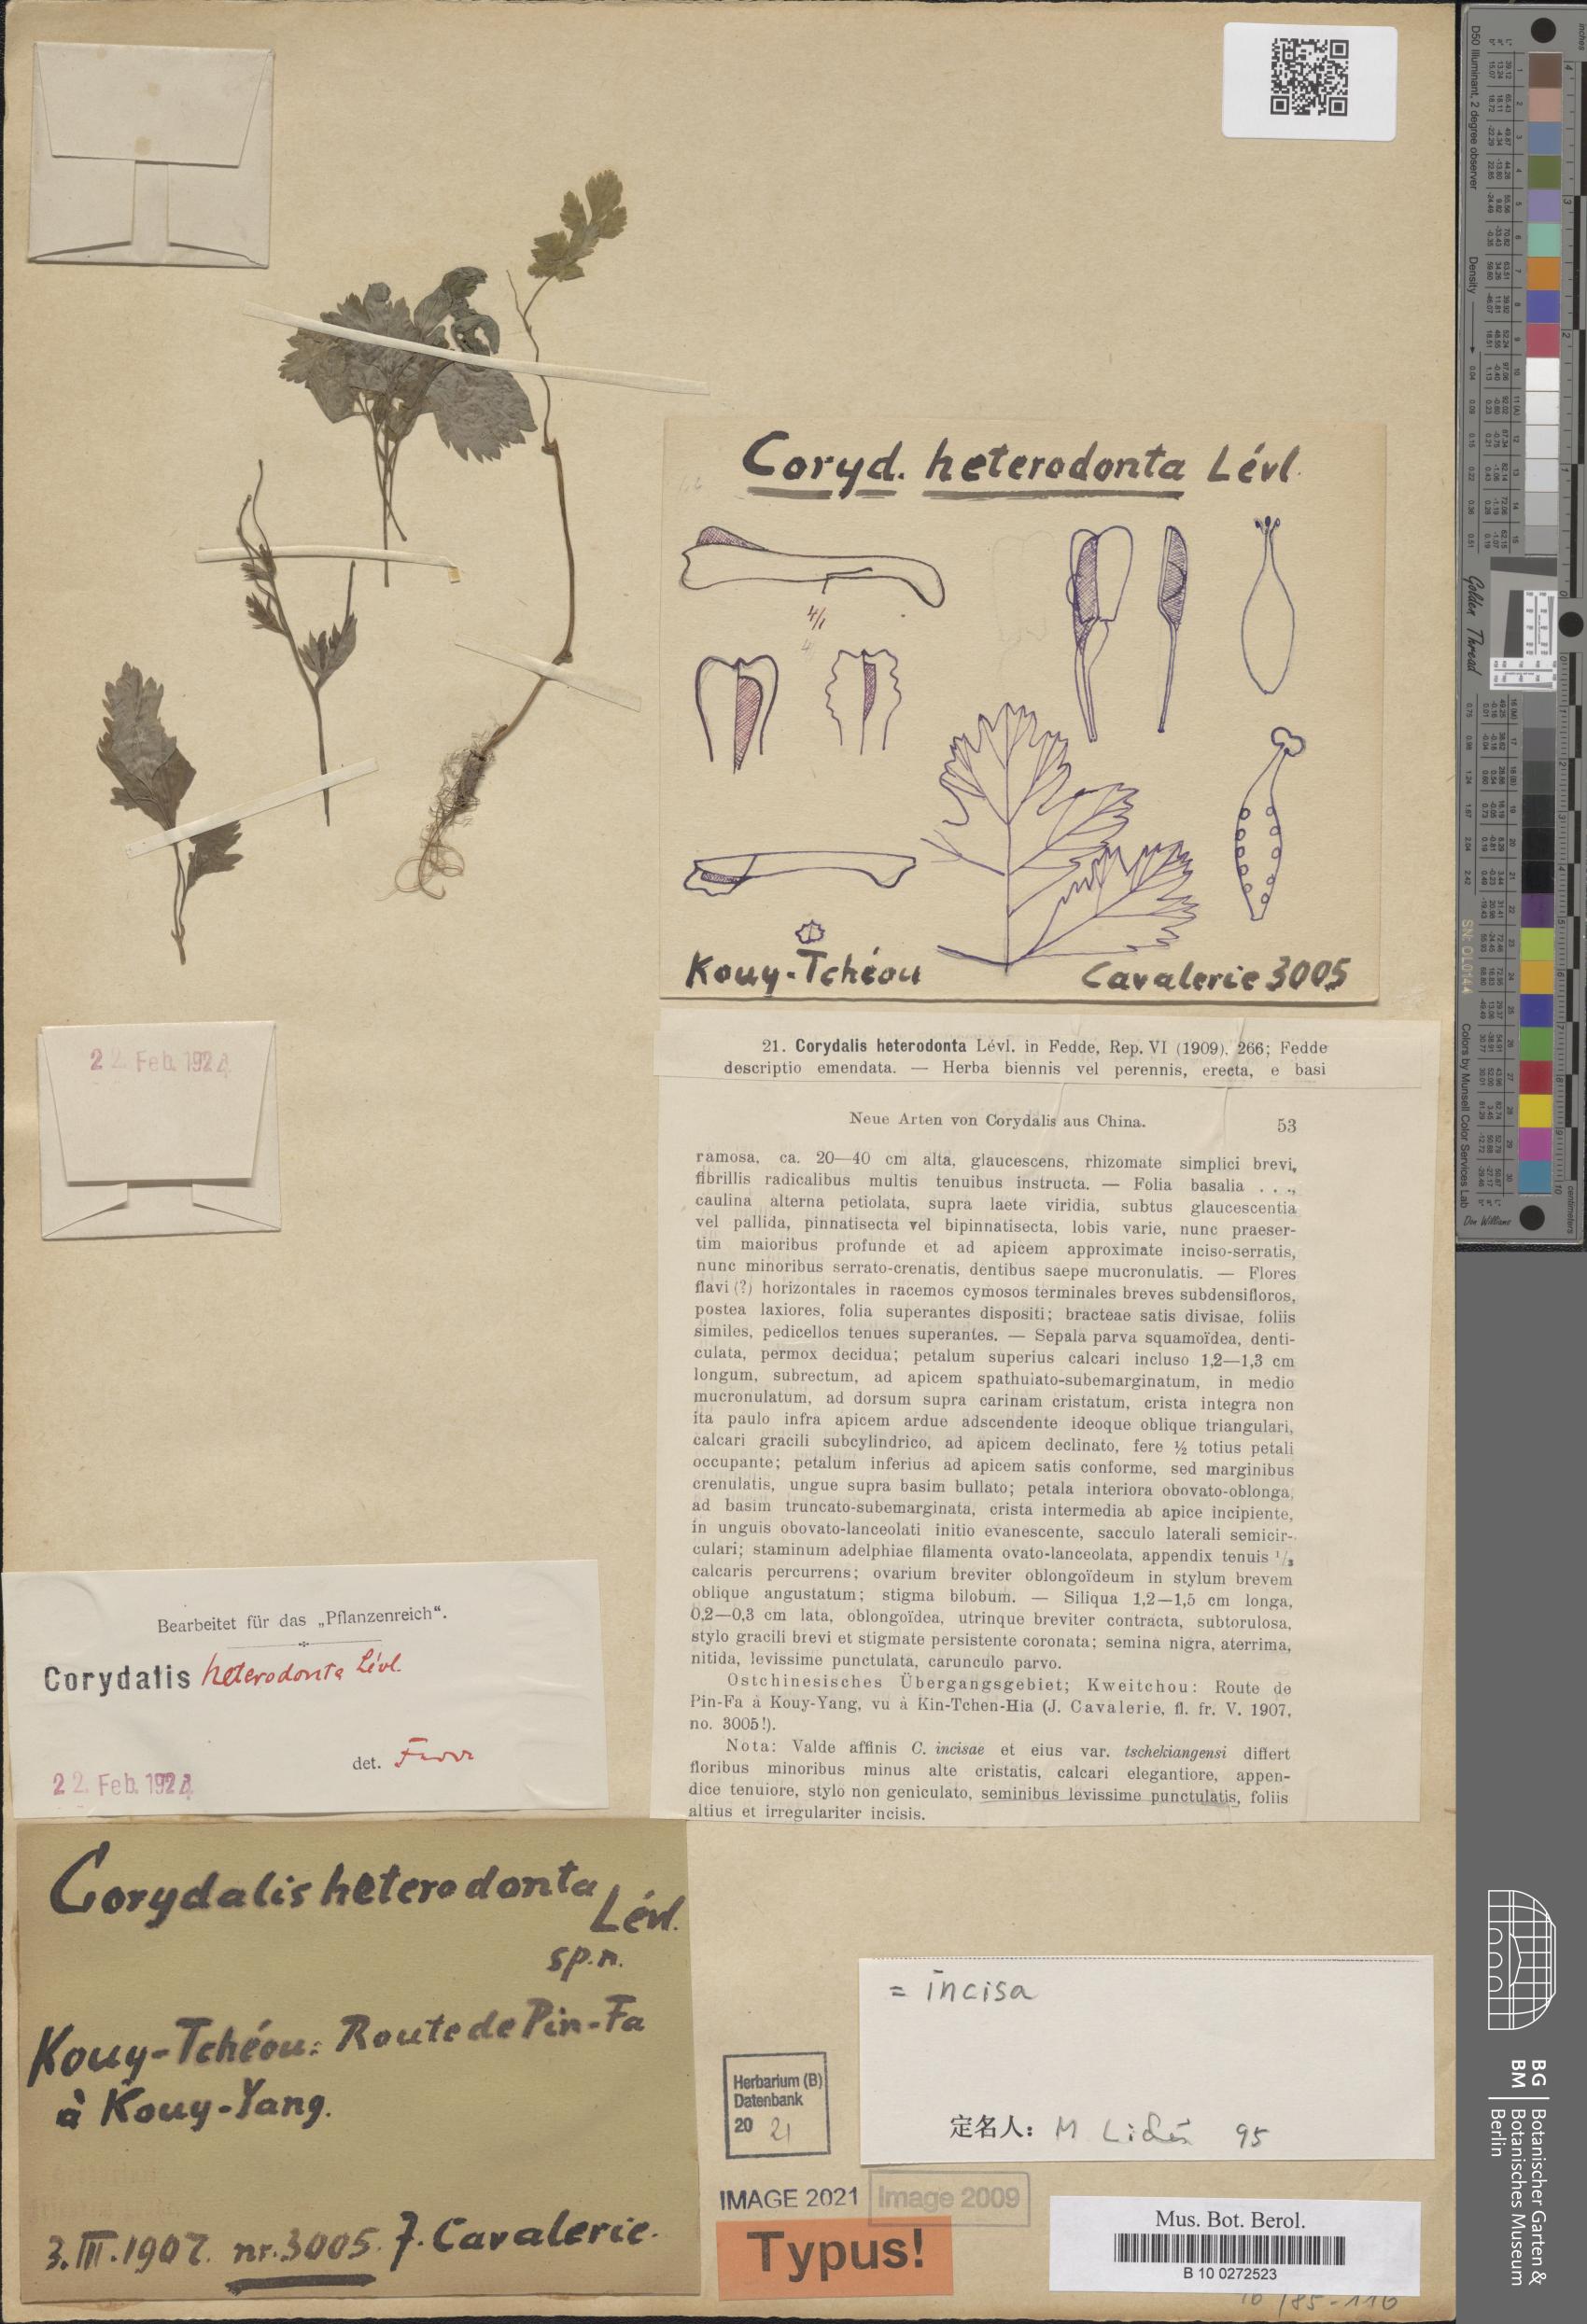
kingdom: Plantae
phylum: Tracheophyta
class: Magnoliopsida
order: Ranunculales
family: Papaveraceae
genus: Corydalis
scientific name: Corydalis incisa
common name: Incised fumewort
